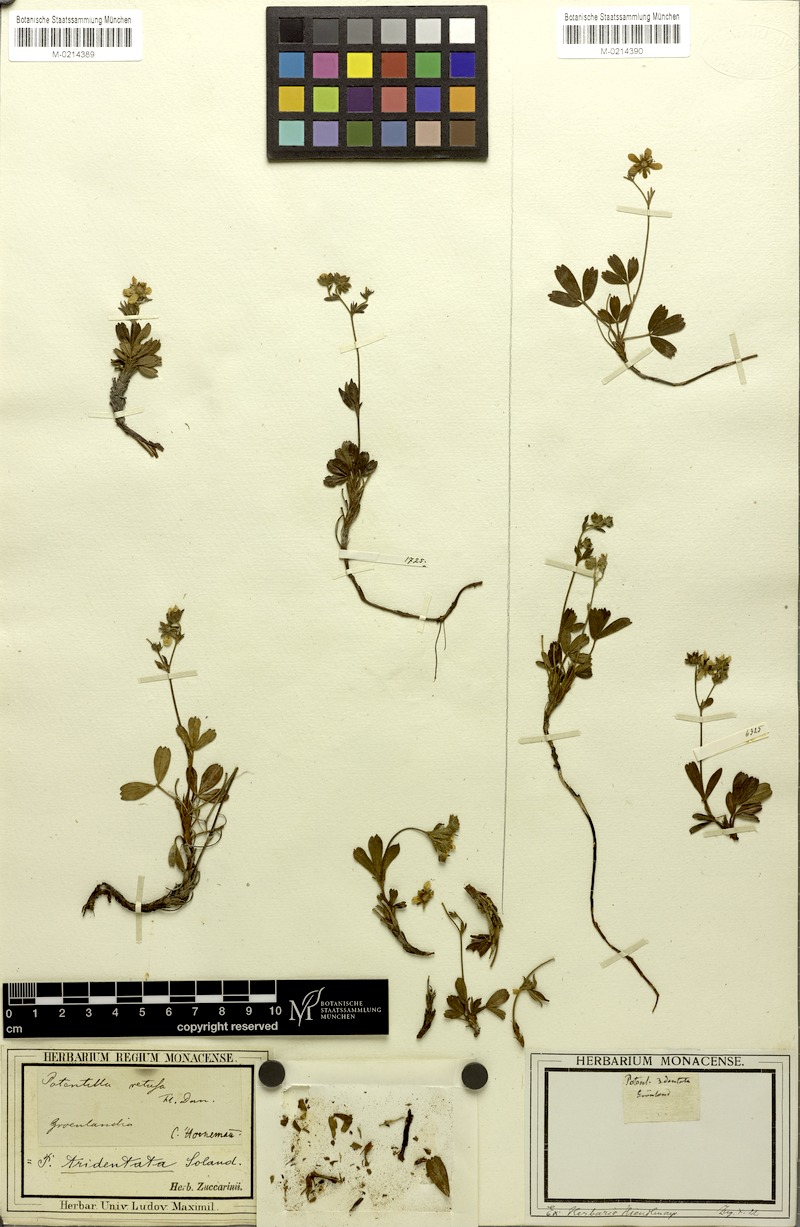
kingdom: Plantae
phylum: Tracheophyta
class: Magnoliopsida
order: Rosales
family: Rosaceae
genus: Sibbaldia
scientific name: Sibbaldia tridentata
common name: Three-toothed cinquefoil
